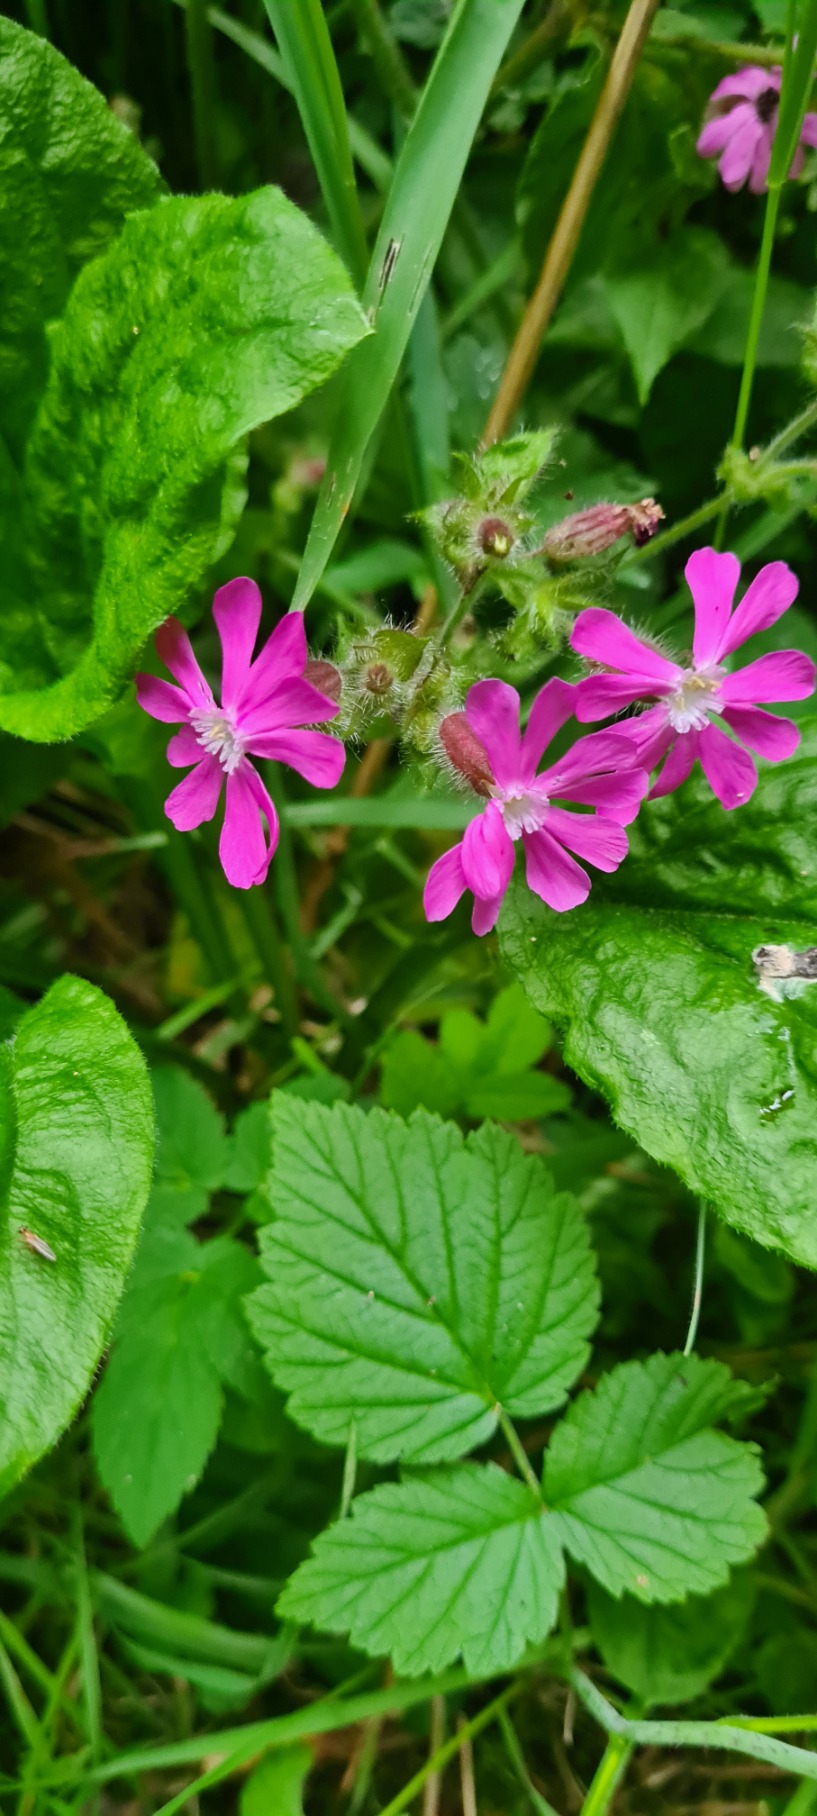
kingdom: Plantae
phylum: Tracheophyta
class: Magnoliopsida
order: Caryophyllales
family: Caryophyllaceae
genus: Silene
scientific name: Silene dioica
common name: Dagpragtstjerne
